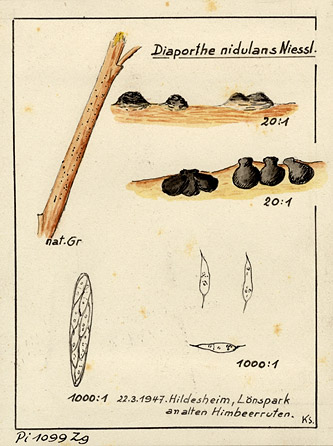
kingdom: Fungi
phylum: Ascomycota
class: Sordariomycetes
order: Diaporthales
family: Gnomoniaceae
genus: Anisogramma
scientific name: Anisogramma vepris
